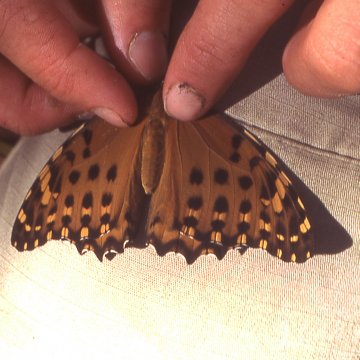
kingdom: Animalia
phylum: Arthropoda
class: Insecta
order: Lepidoptera
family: Nymphalidae
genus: Anetia
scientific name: Anetia pantheratus
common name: Great King
